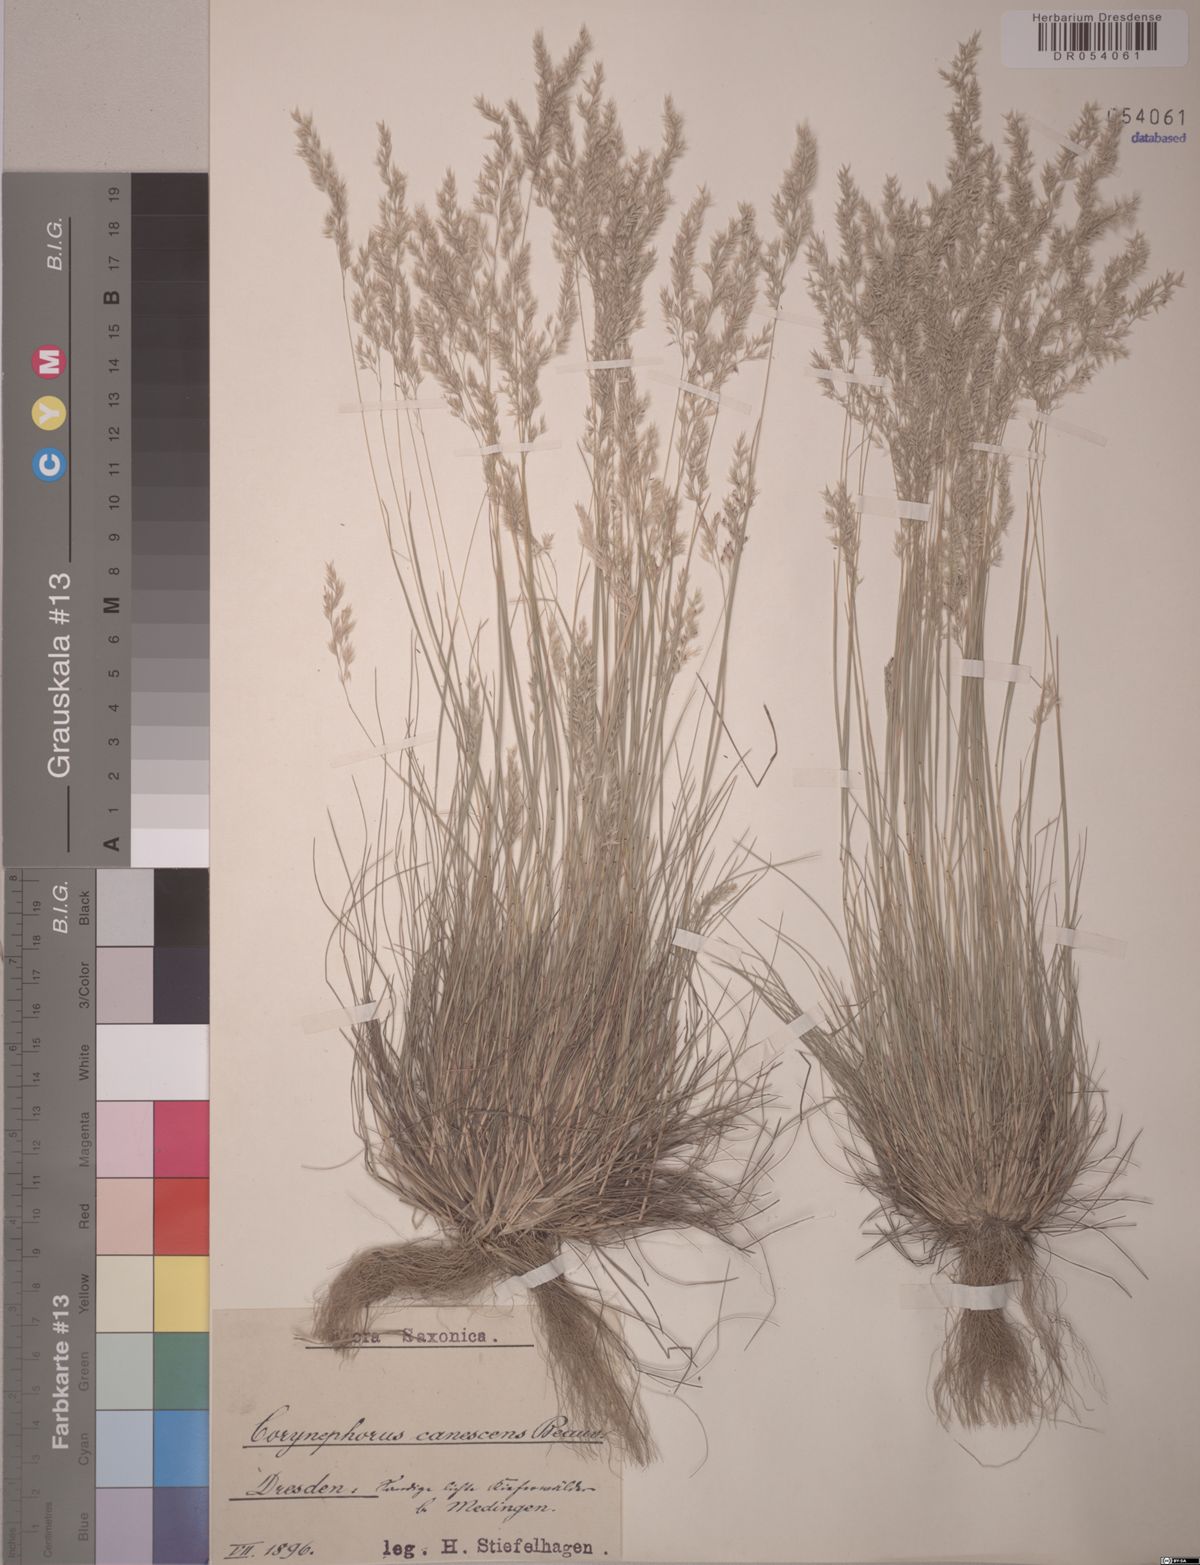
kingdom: Plantae
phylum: Tracheophyta
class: Liliopsida
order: Poales
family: Poaceae
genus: Corynephorus
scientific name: Corynephorus canescens
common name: Grey hair-grass
